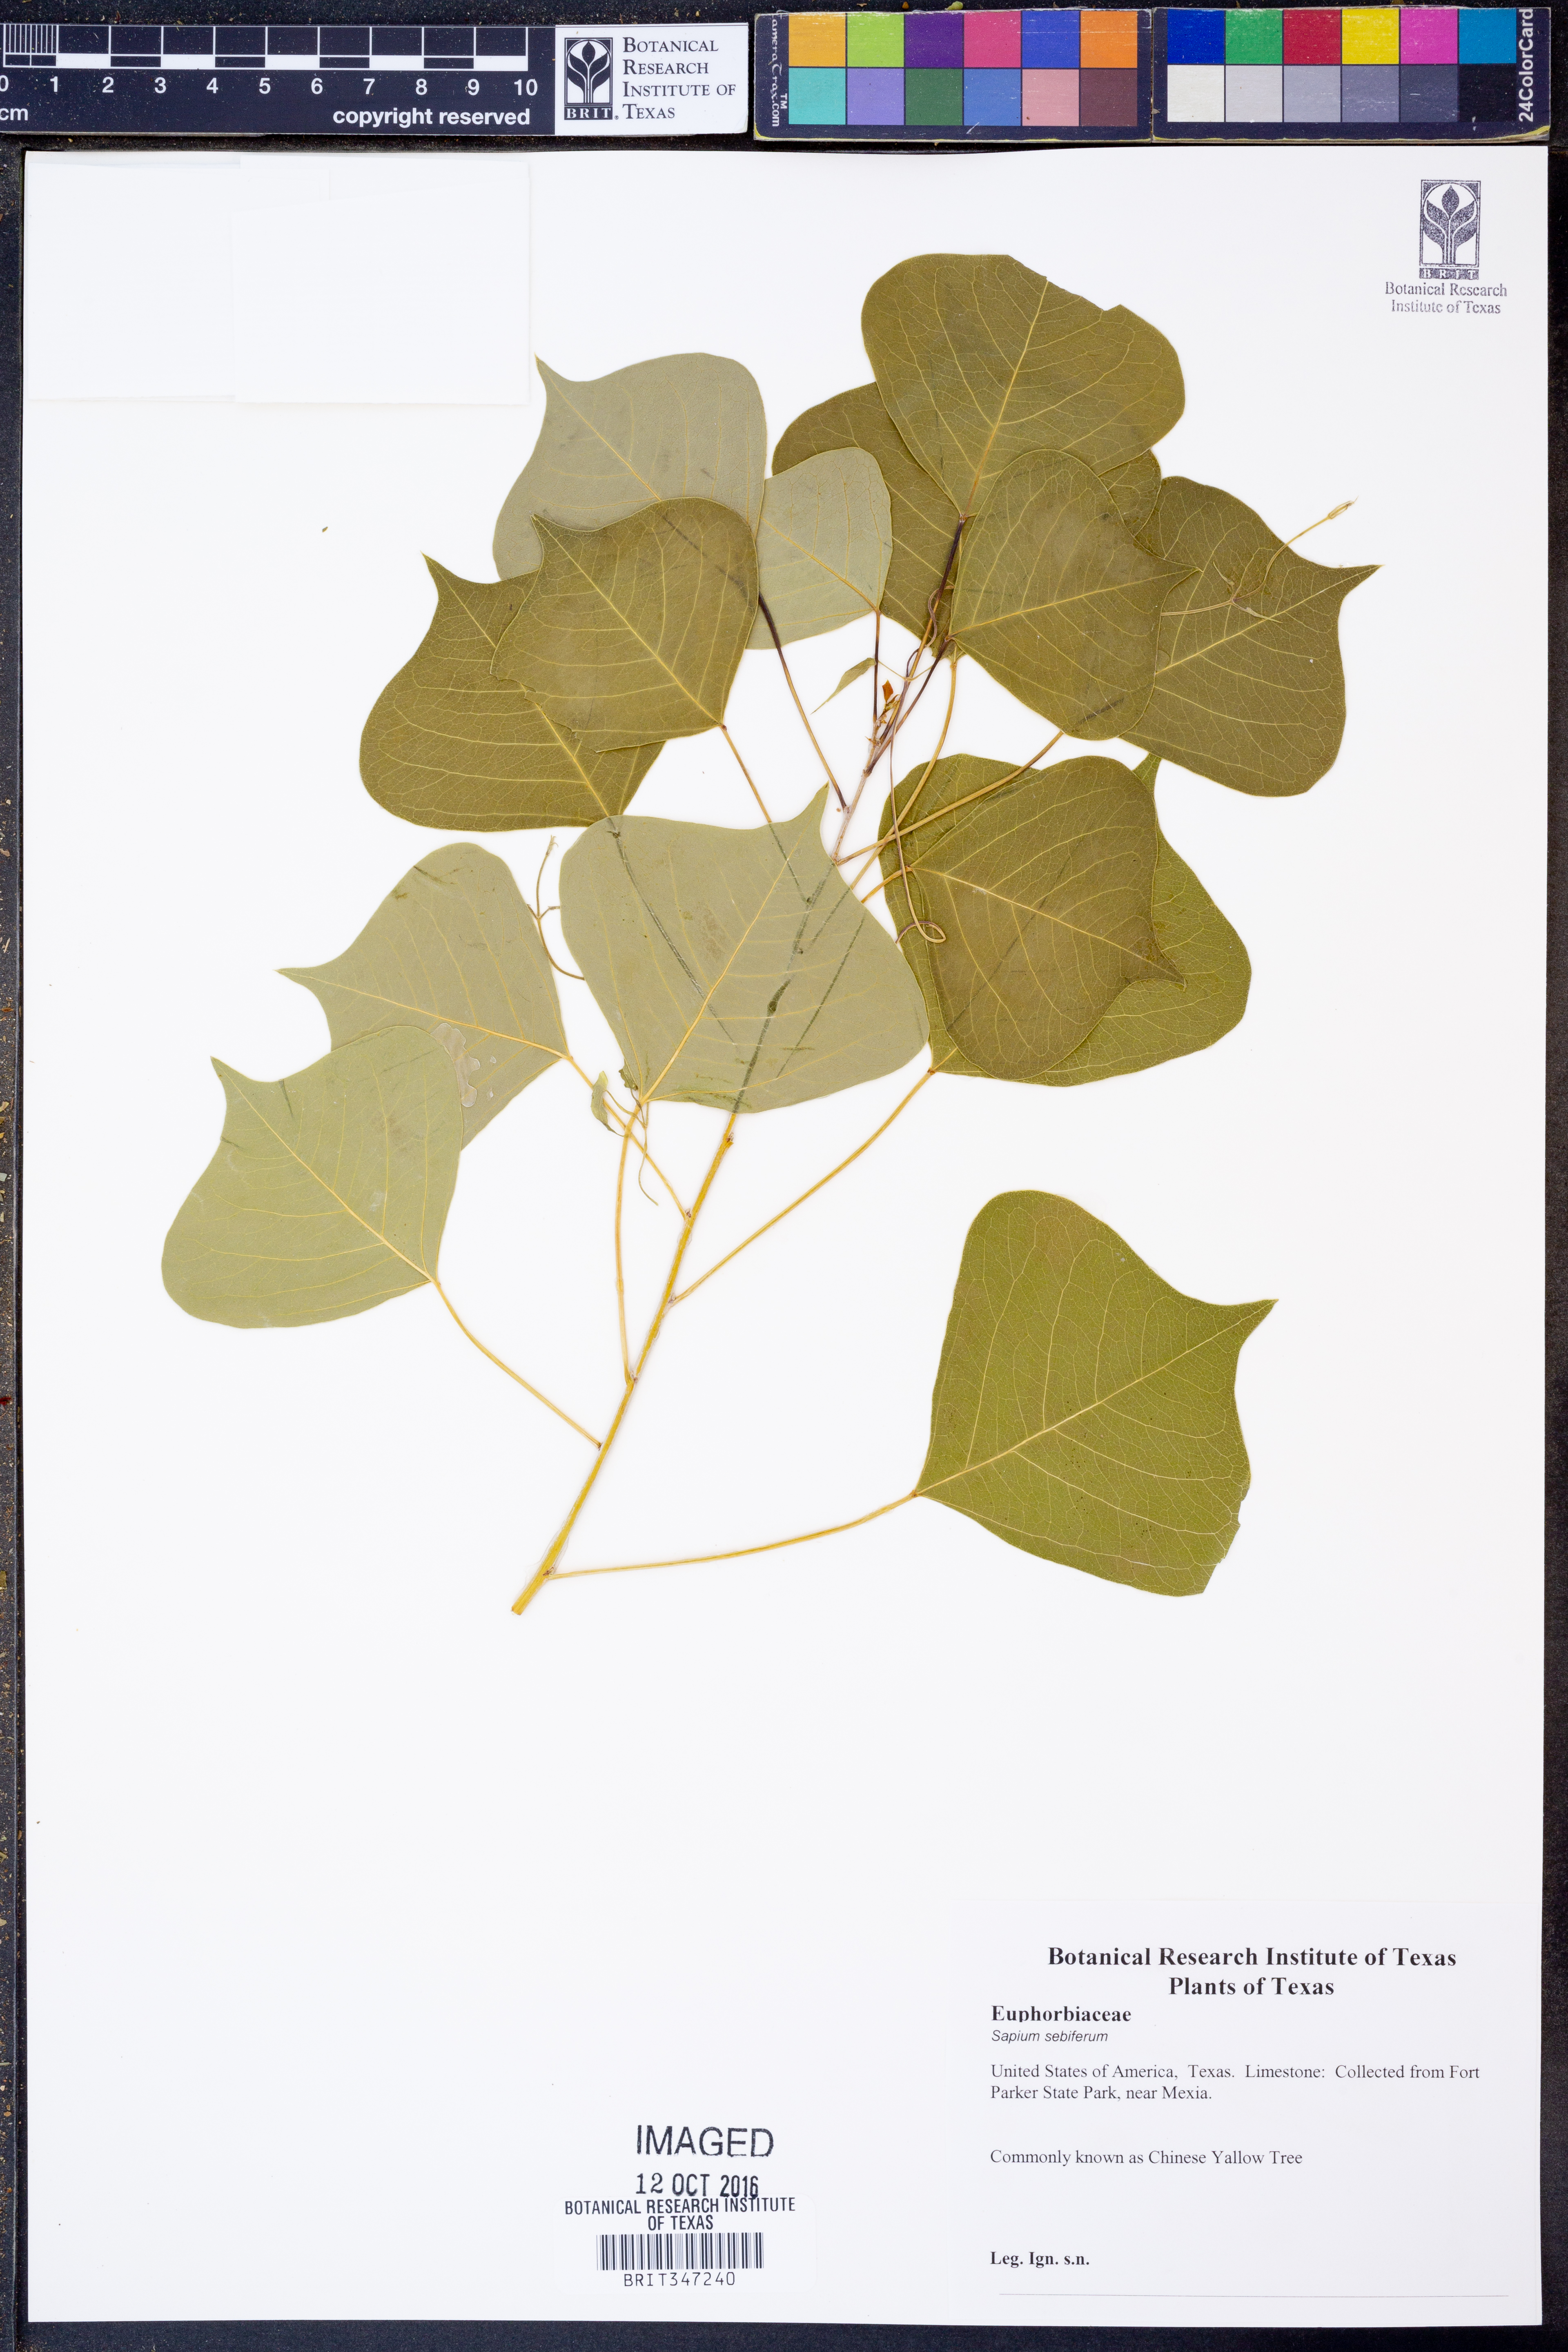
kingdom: Plantae
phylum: Tracheophyta
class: Magnoliopsida
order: Malpighiales
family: Euphorbiaceae
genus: Triadica
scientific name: Triadica sebifera
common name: Chinese tallow
